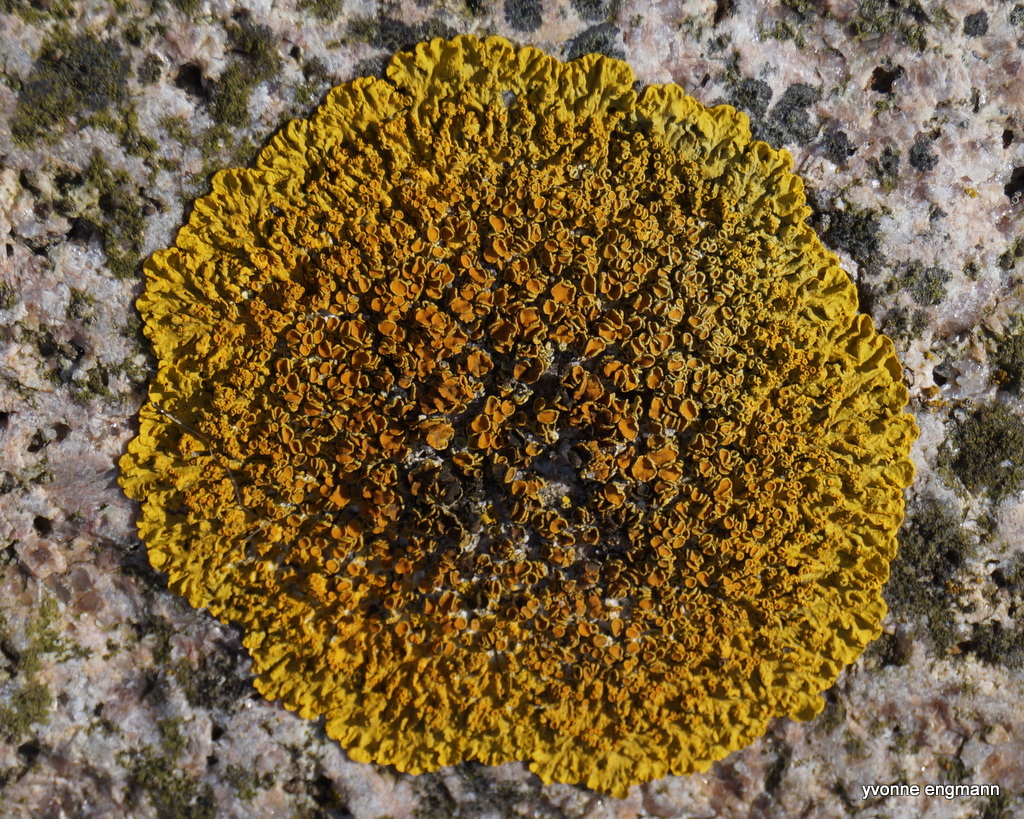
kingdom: Fungi
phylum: Ascomycota
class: Lecanoromycetes
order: Teloschistales
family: Teloschistaceae
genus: Xanthoria
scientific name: Xanthoria parietina
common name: almindelig væggelav
